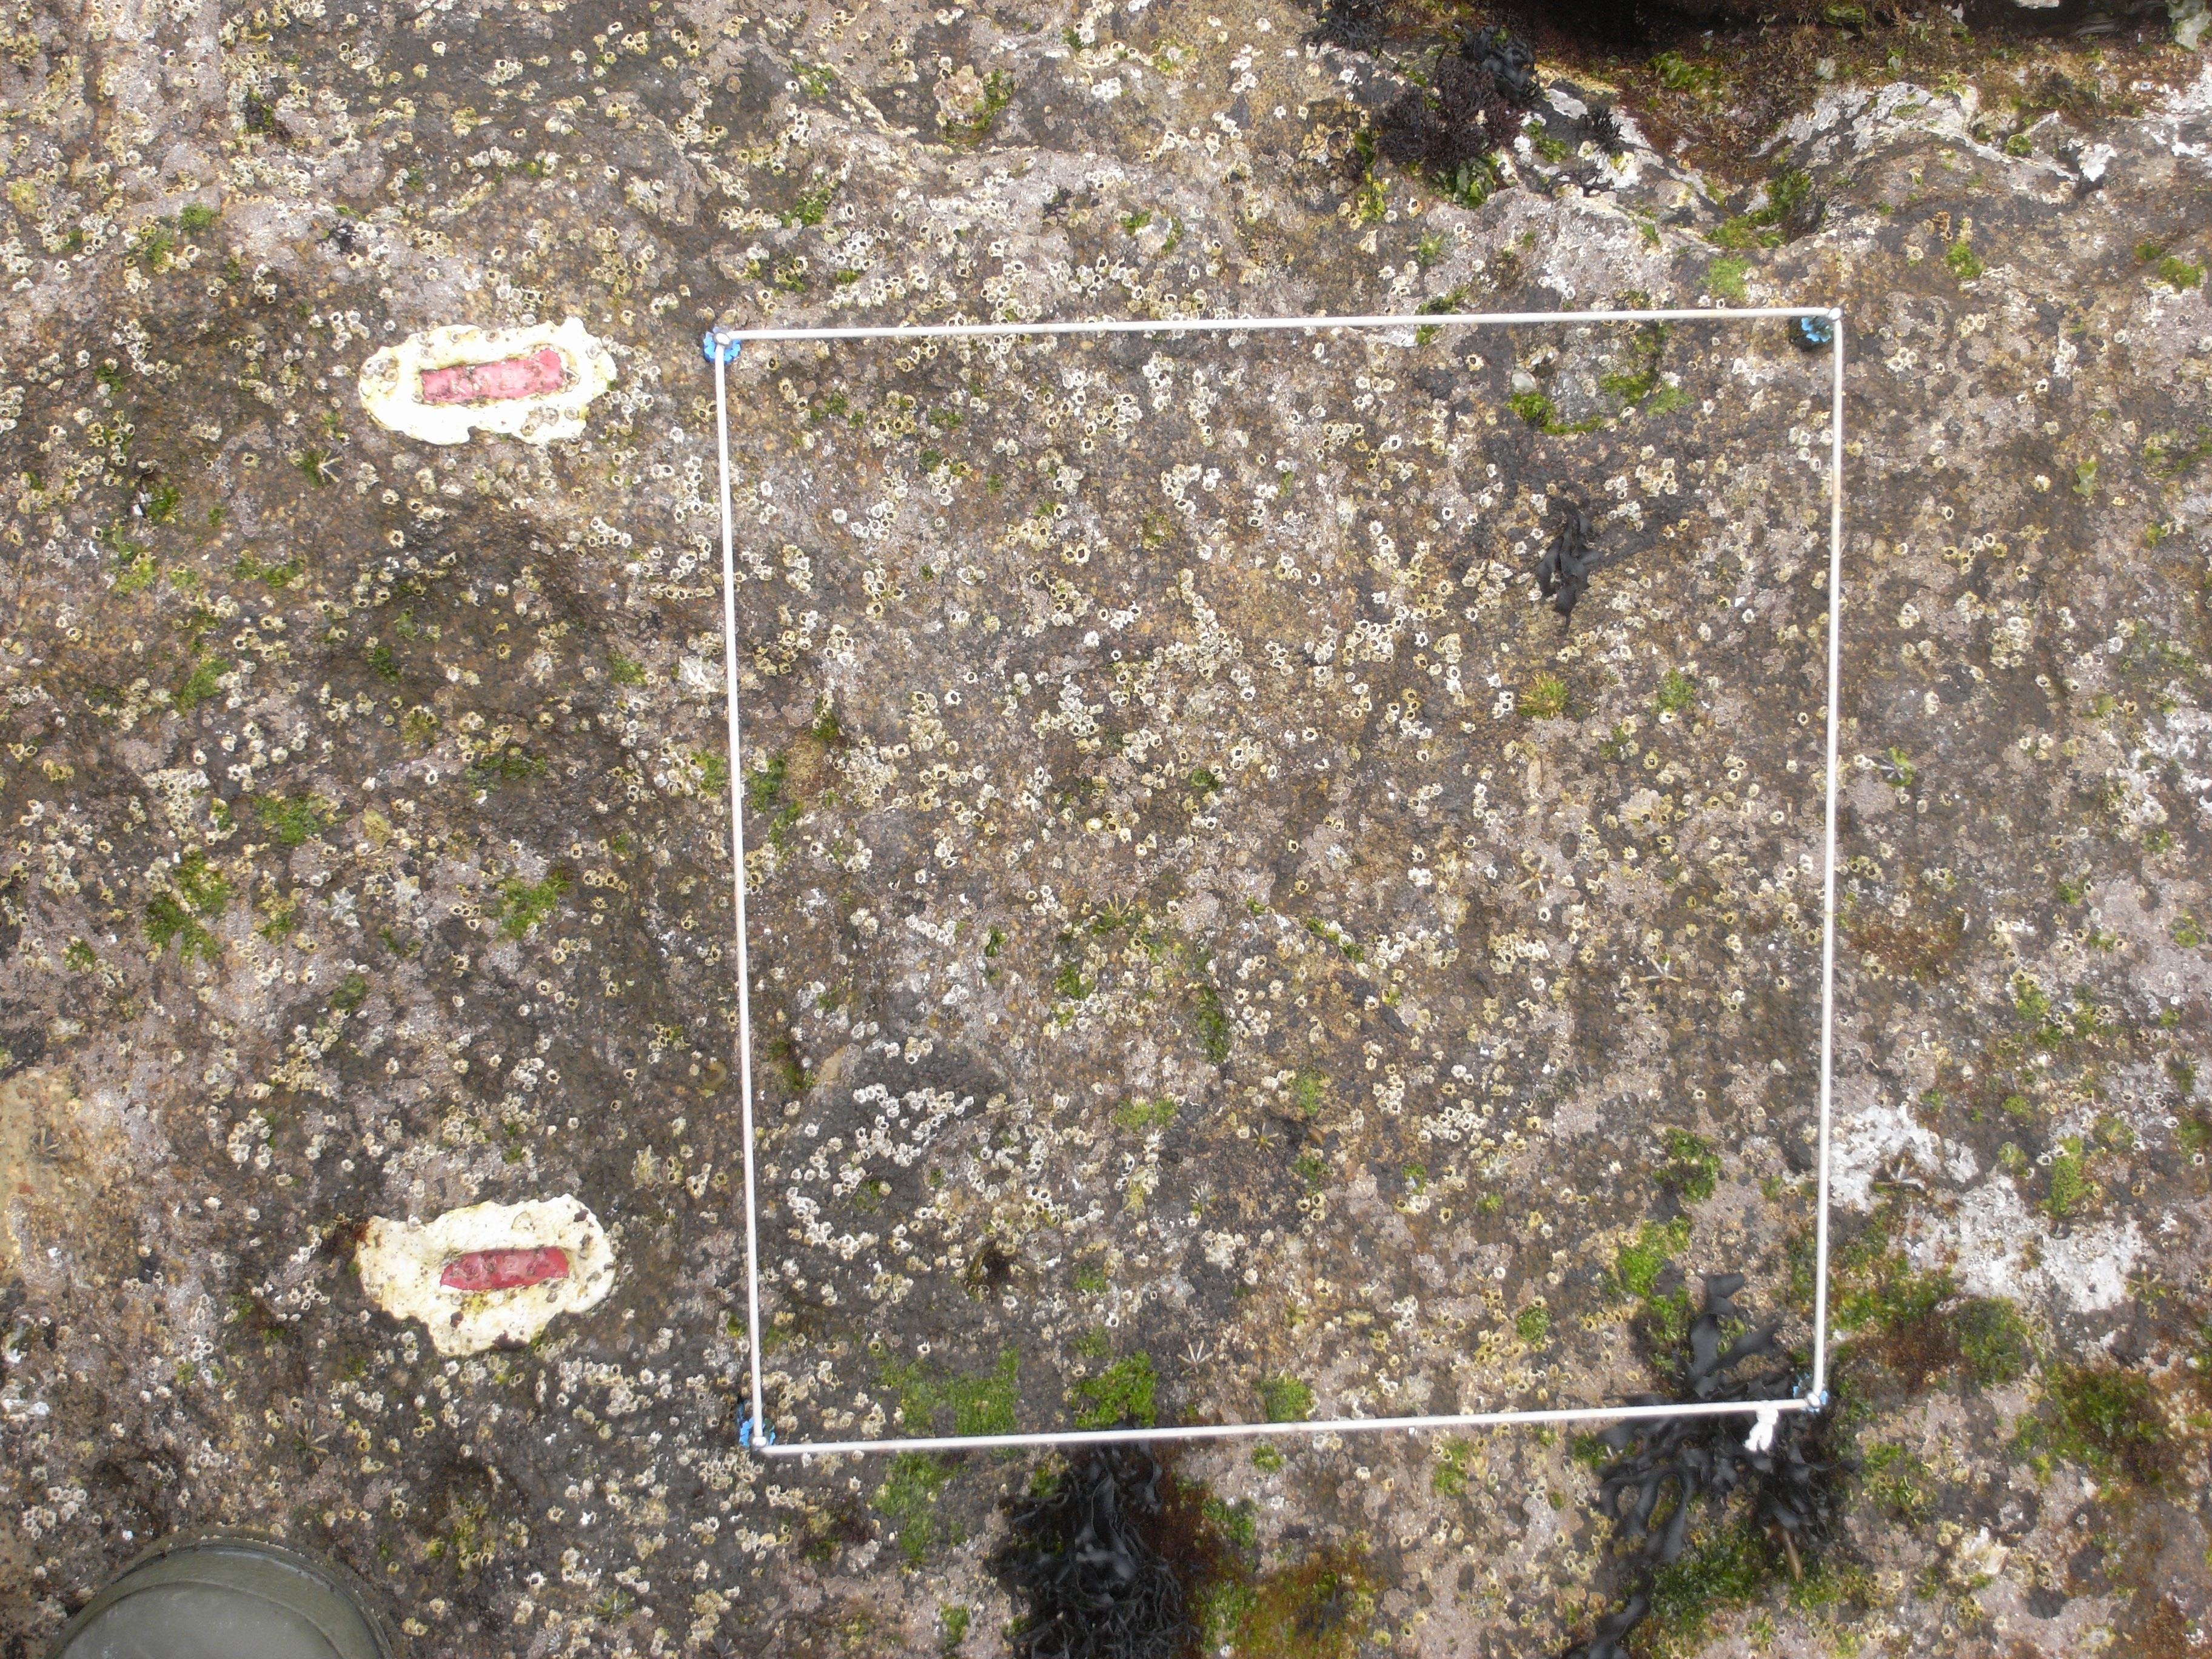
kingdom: Animalia
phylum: Arthropoda
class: Maxillopoda
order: Sessilia
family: Chthamalidae
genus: Chthamalus
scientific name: Chthamalus challengeri
